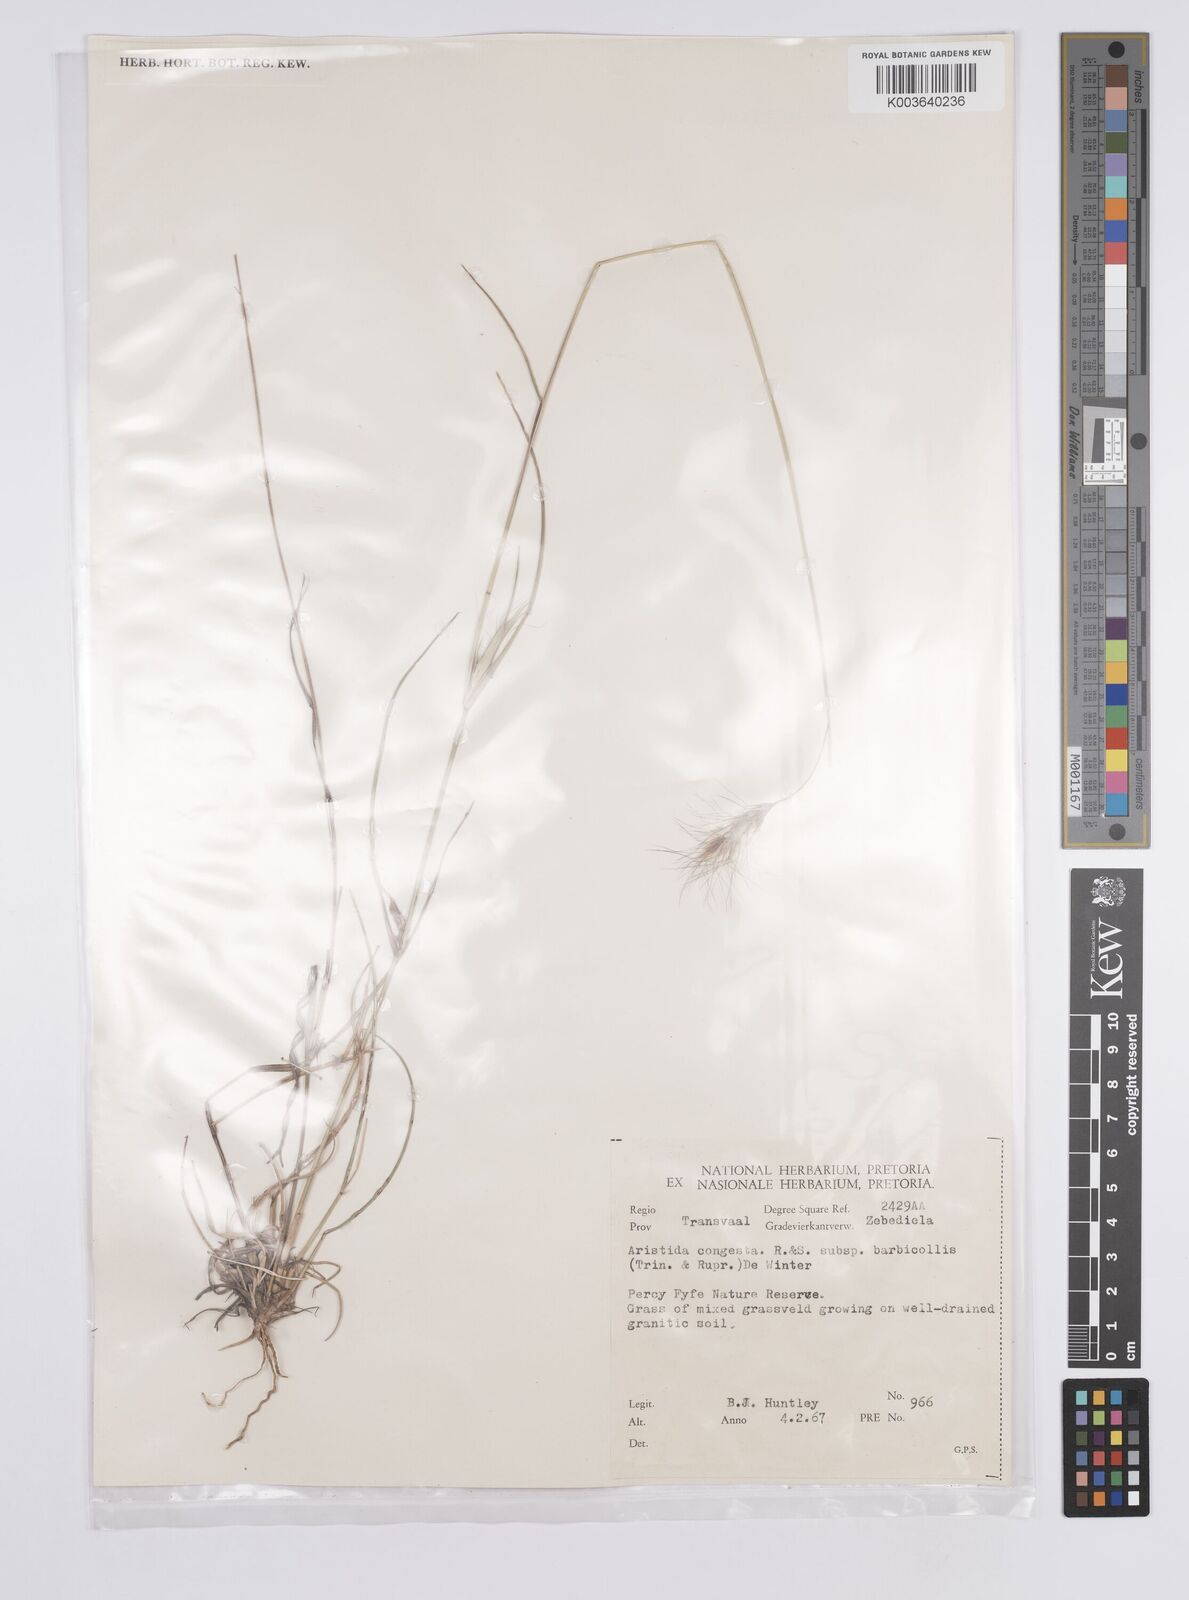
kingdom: Plantae
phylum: Tracheophyta
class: Liliopsida
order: Poales
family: Poaceae
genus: Aristida
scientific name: Aristida congesta
